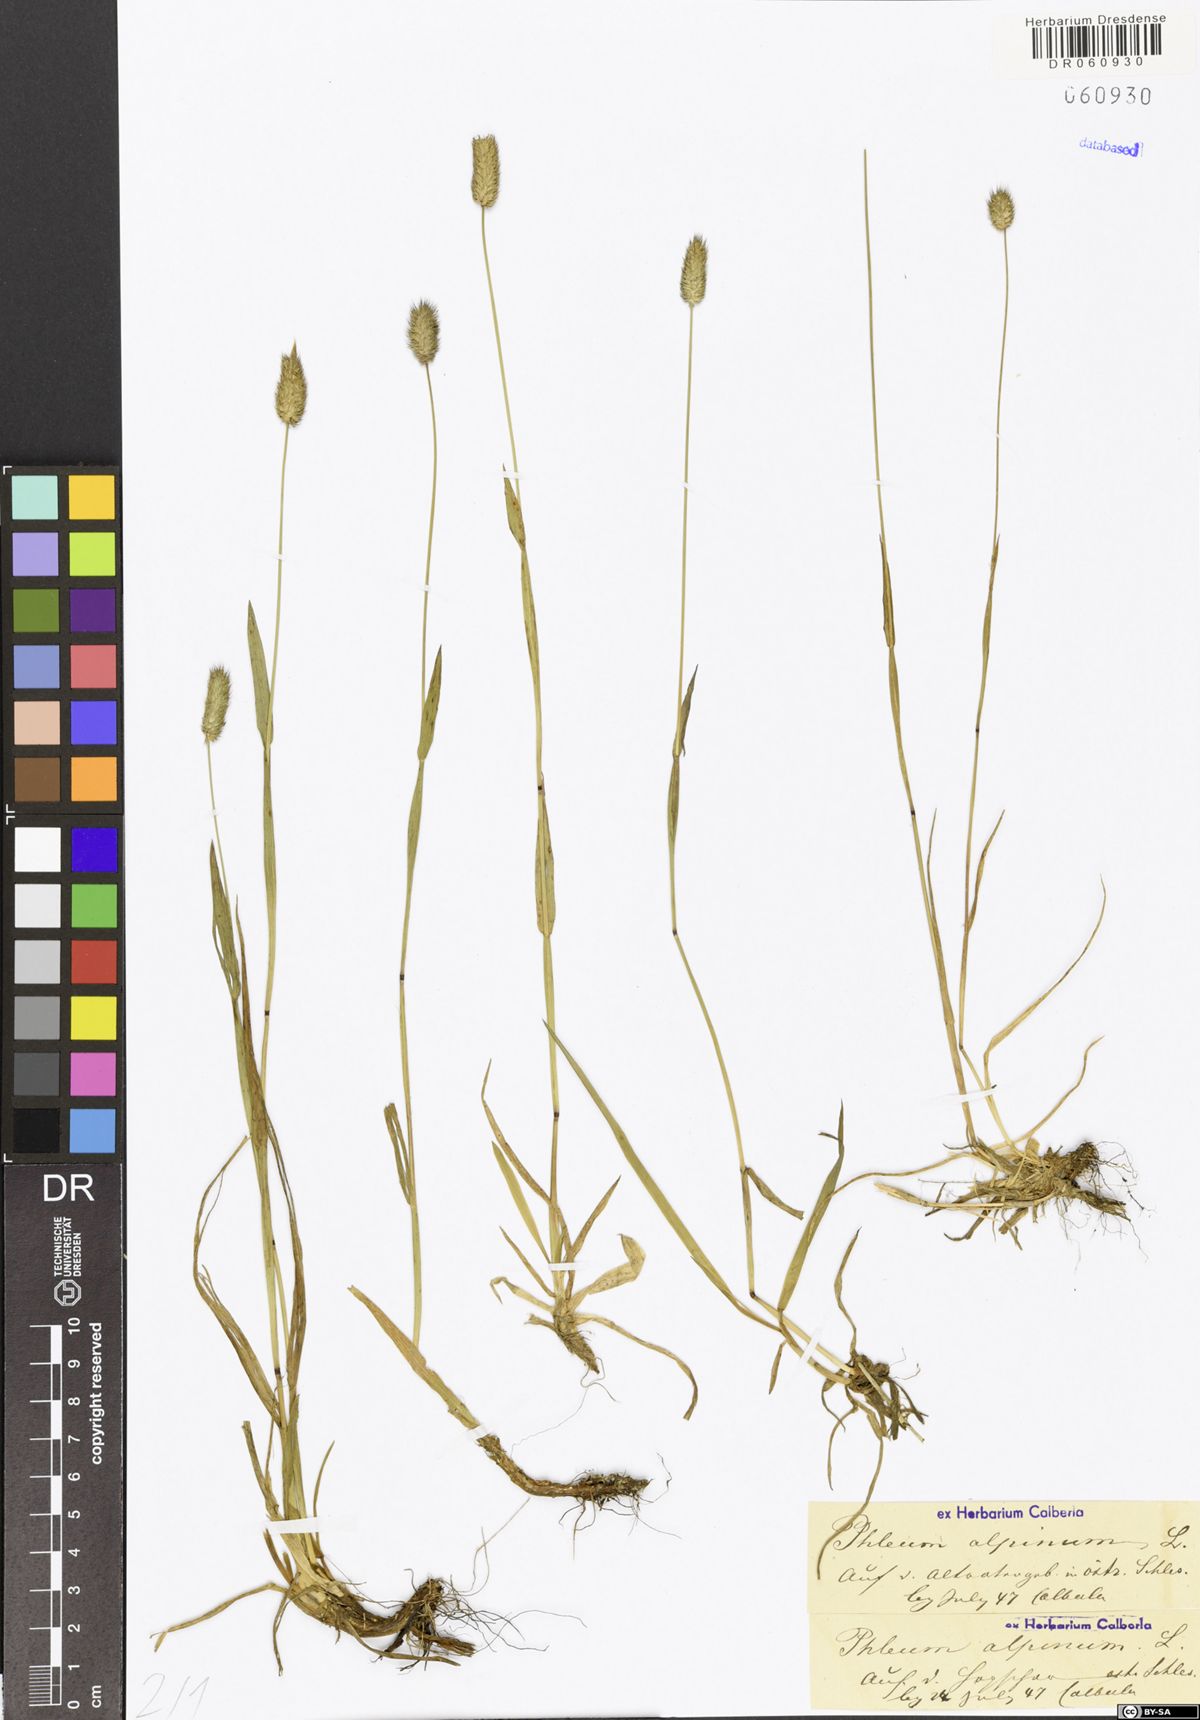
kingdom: Plantae
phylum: Tracheophyta
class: Liliopsida
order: Poales
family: Poaceae
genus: Phleum
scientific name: Phleum alpinum
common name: Alpine cat's-tail
